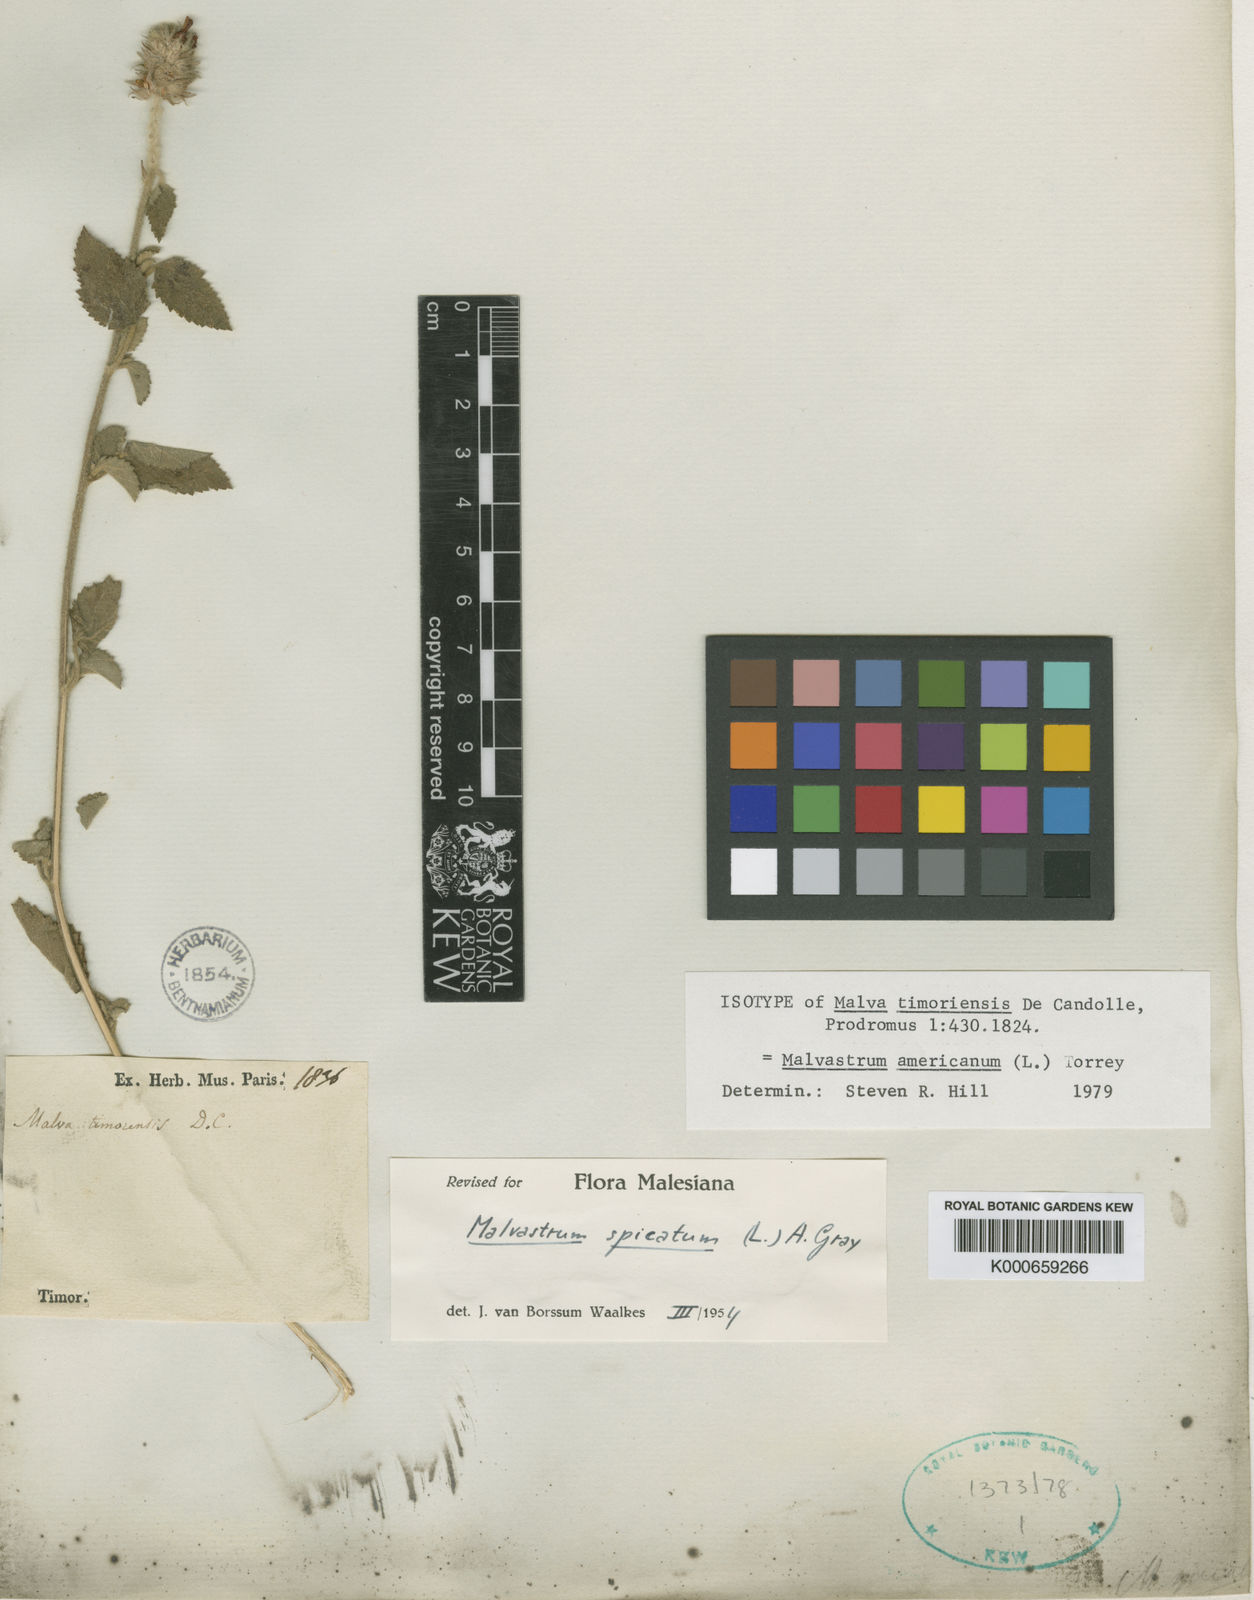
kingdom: Plantae
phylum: Tracheophyta
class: Magnoliopsida
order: Malvales
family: Malvaceae
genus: Malvastrum
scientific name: Malvastrum americanum
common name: Spiked malvastrum
